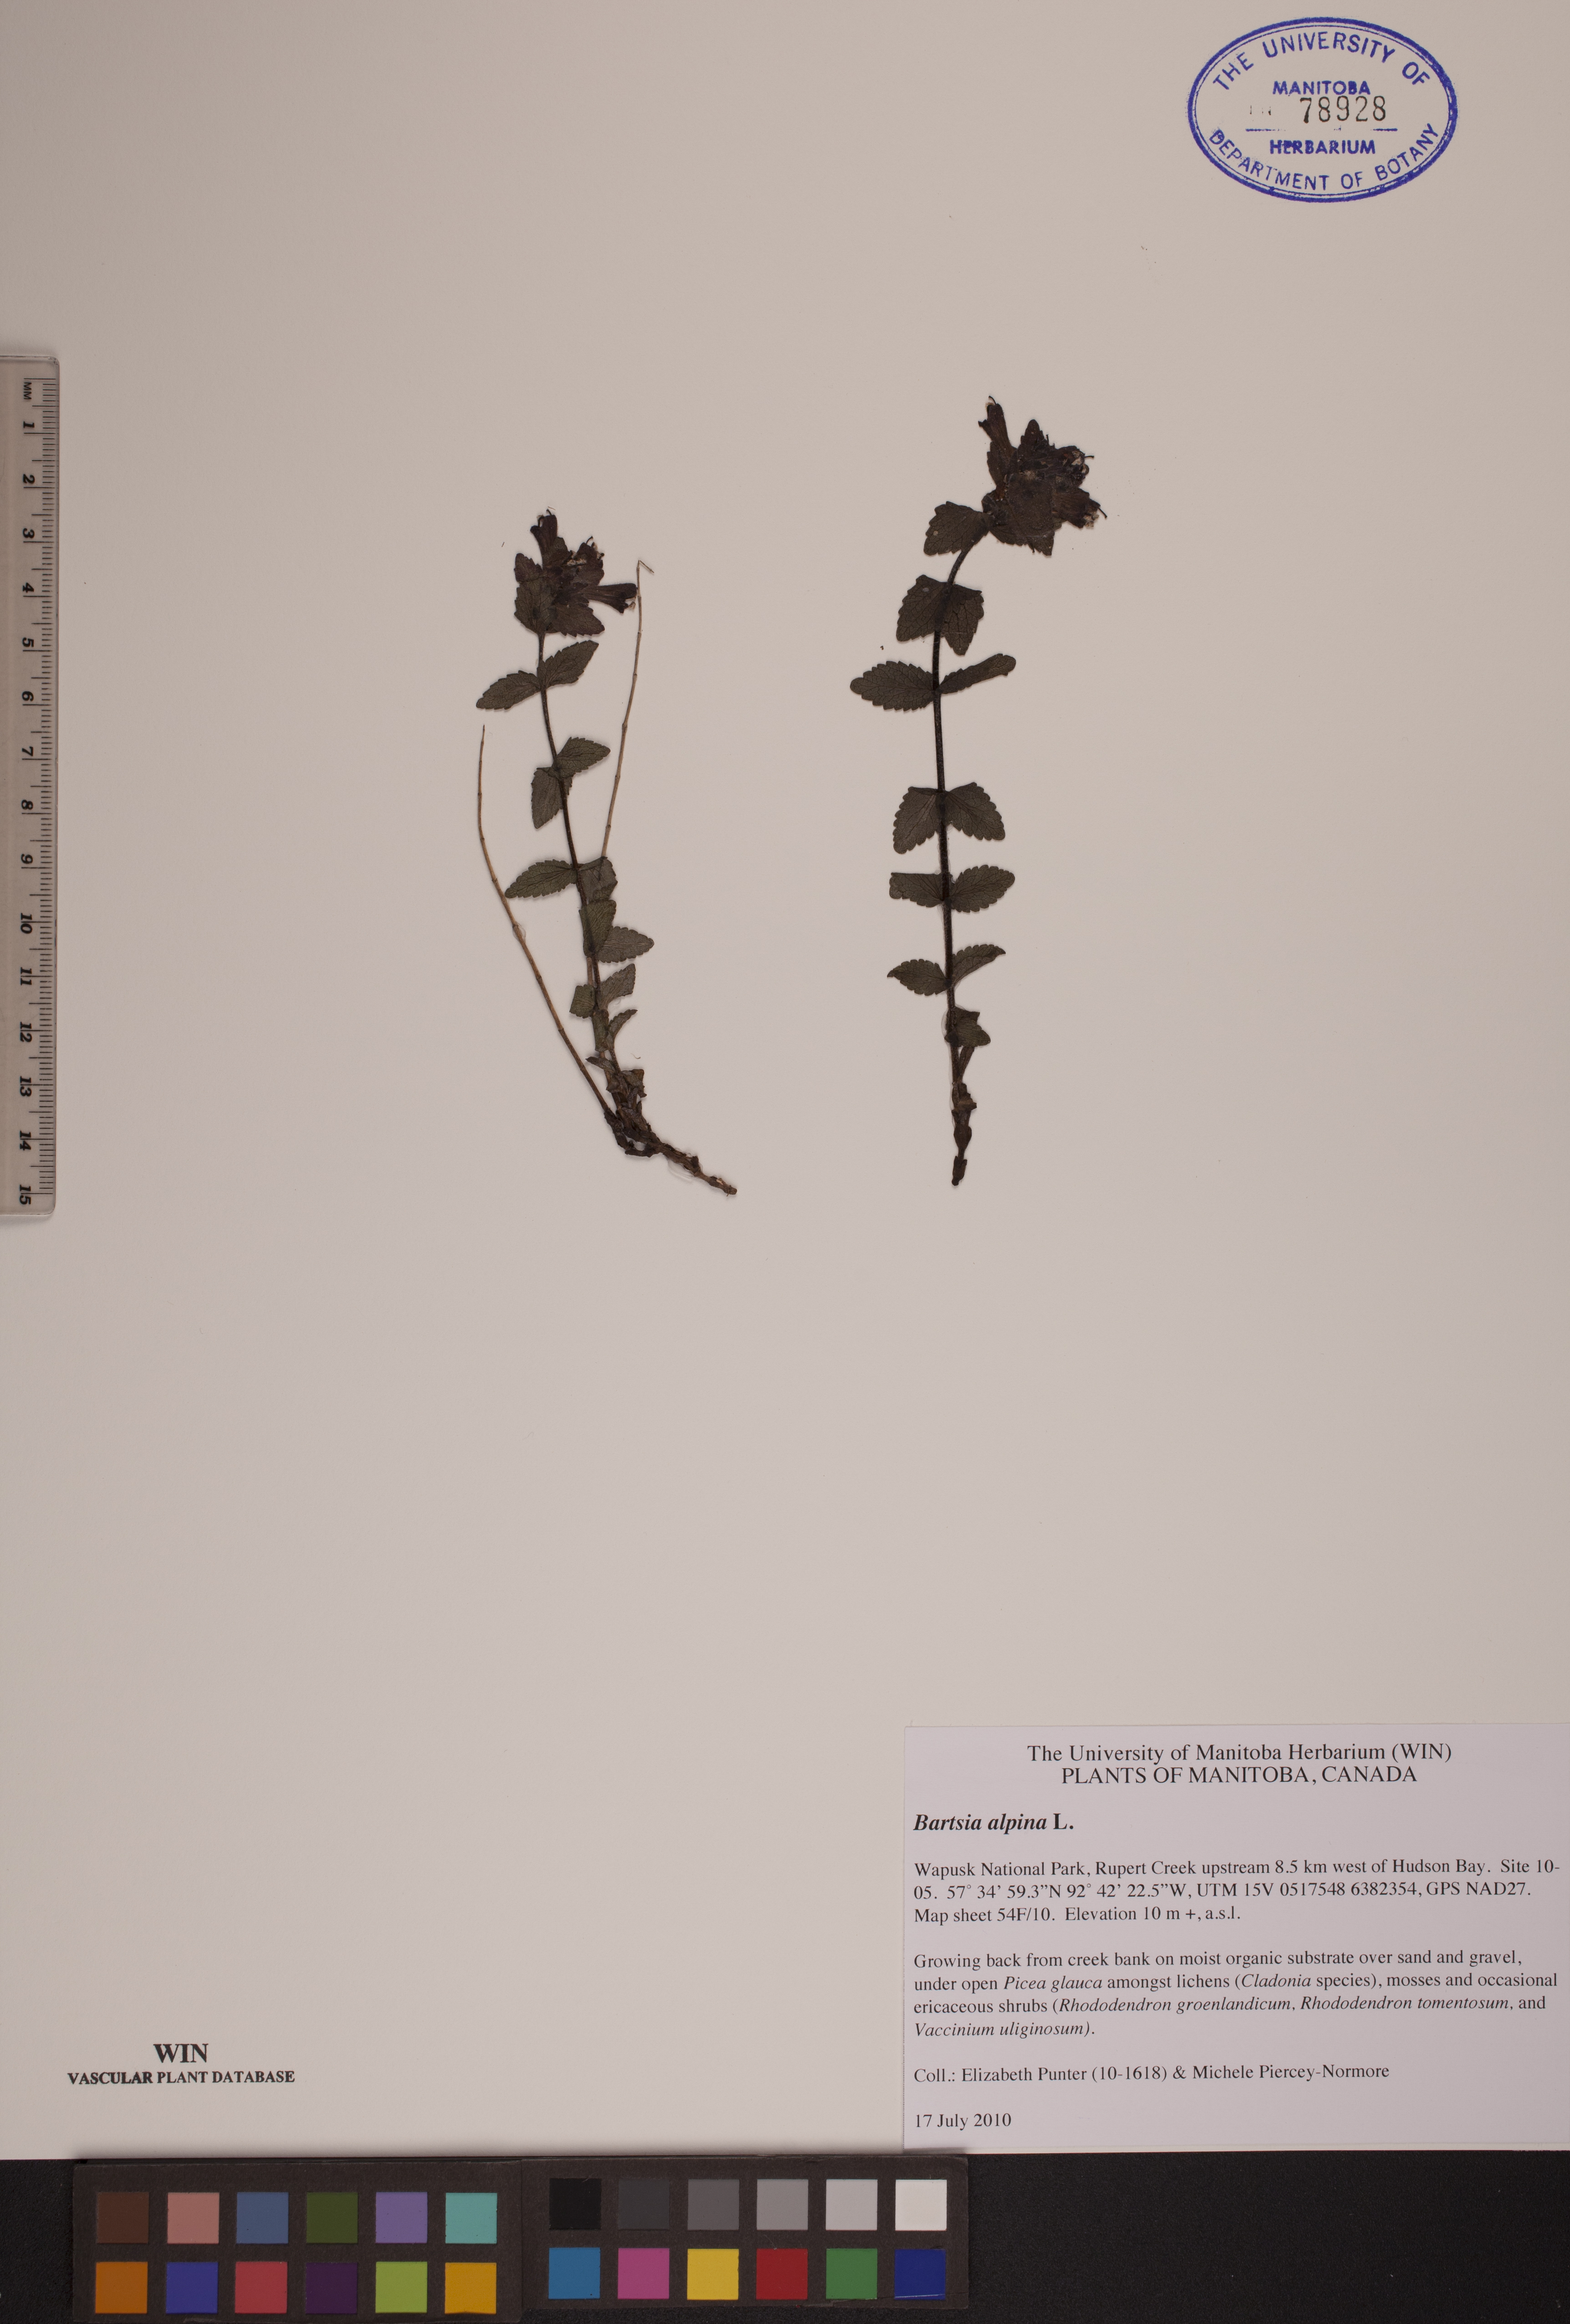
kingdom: Plantae
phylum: Tracheophyta
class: Magnoliopsida
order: Lamiales
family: Orobanchaceae
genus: Bartsia
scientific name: Bartsia alpina
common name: Alpine bartsia
